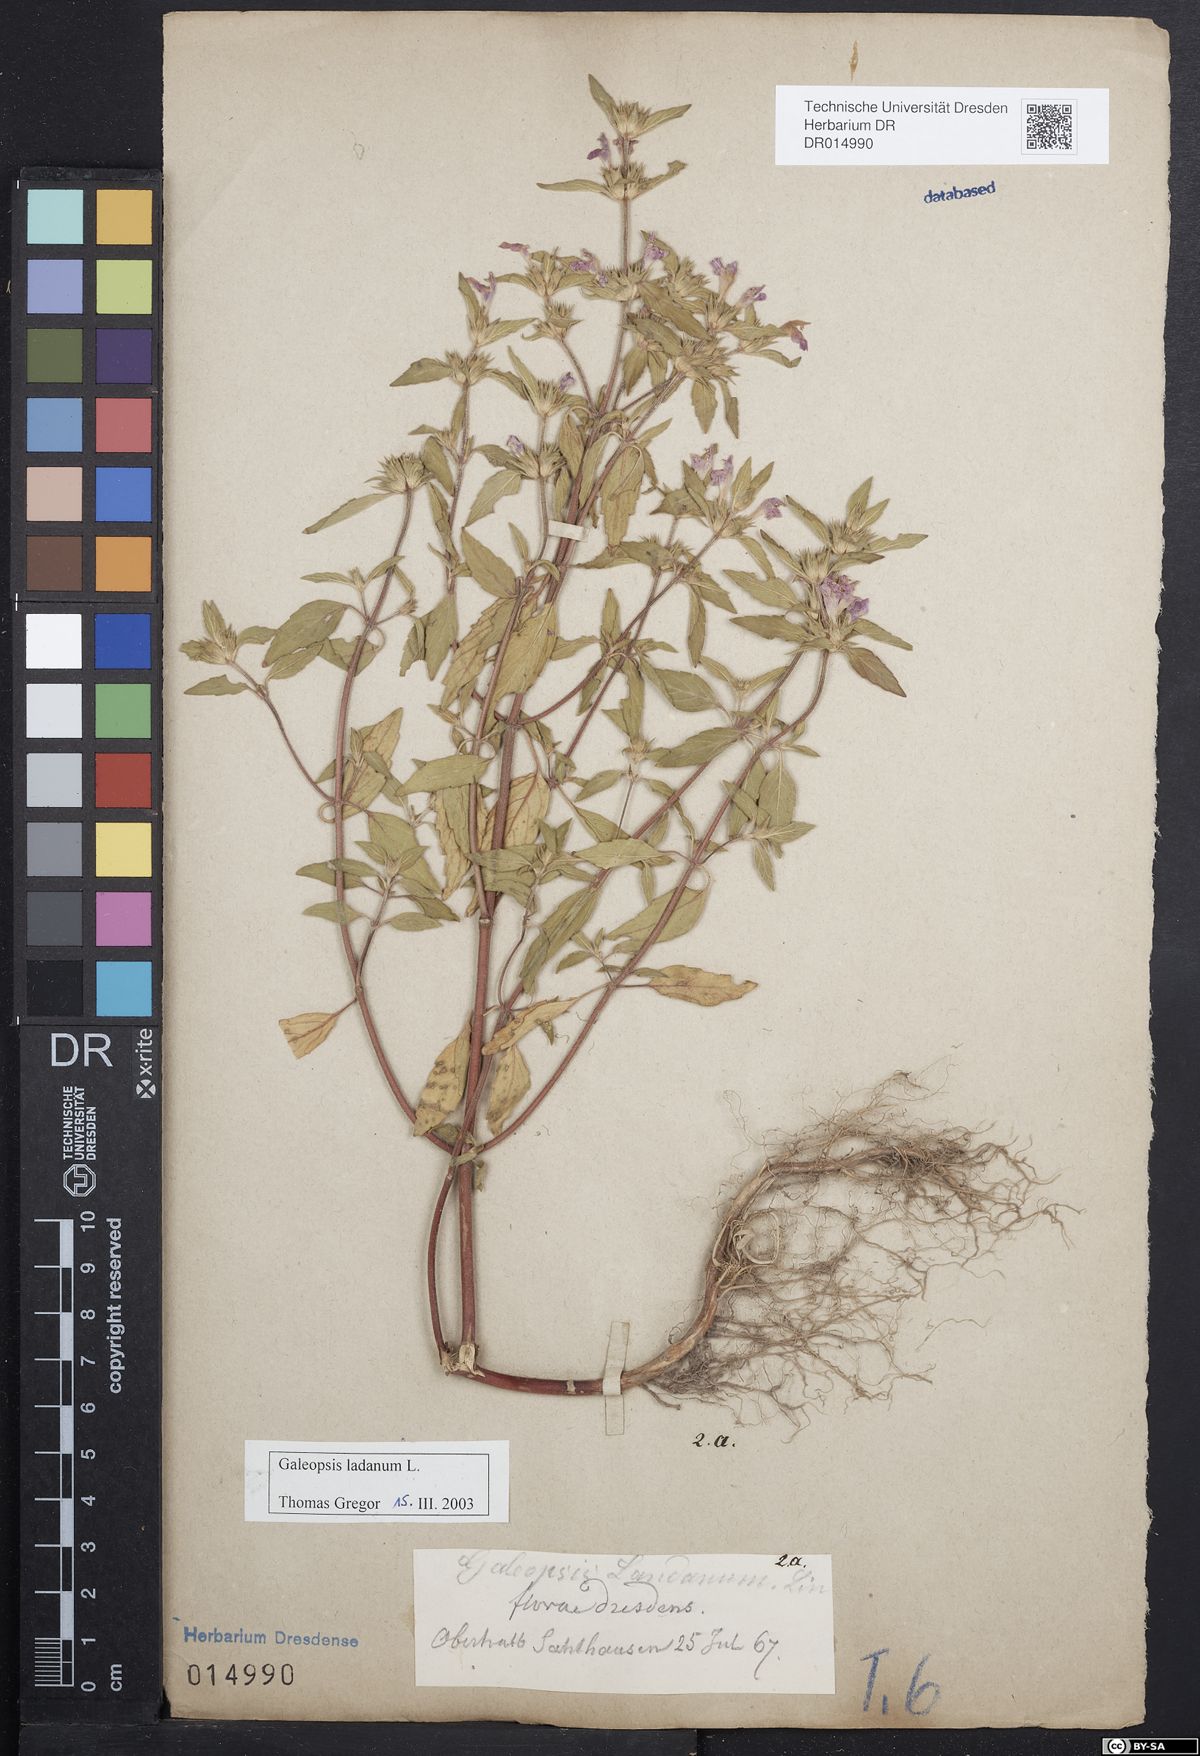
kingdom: Plantae
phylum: Tracheophyta
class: Magnoliopsida
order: Lamiales
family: Lamiaceae
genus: Galeopsis
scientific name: Galeopsis ladanum
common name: Broad-leaved hemp-nettle
